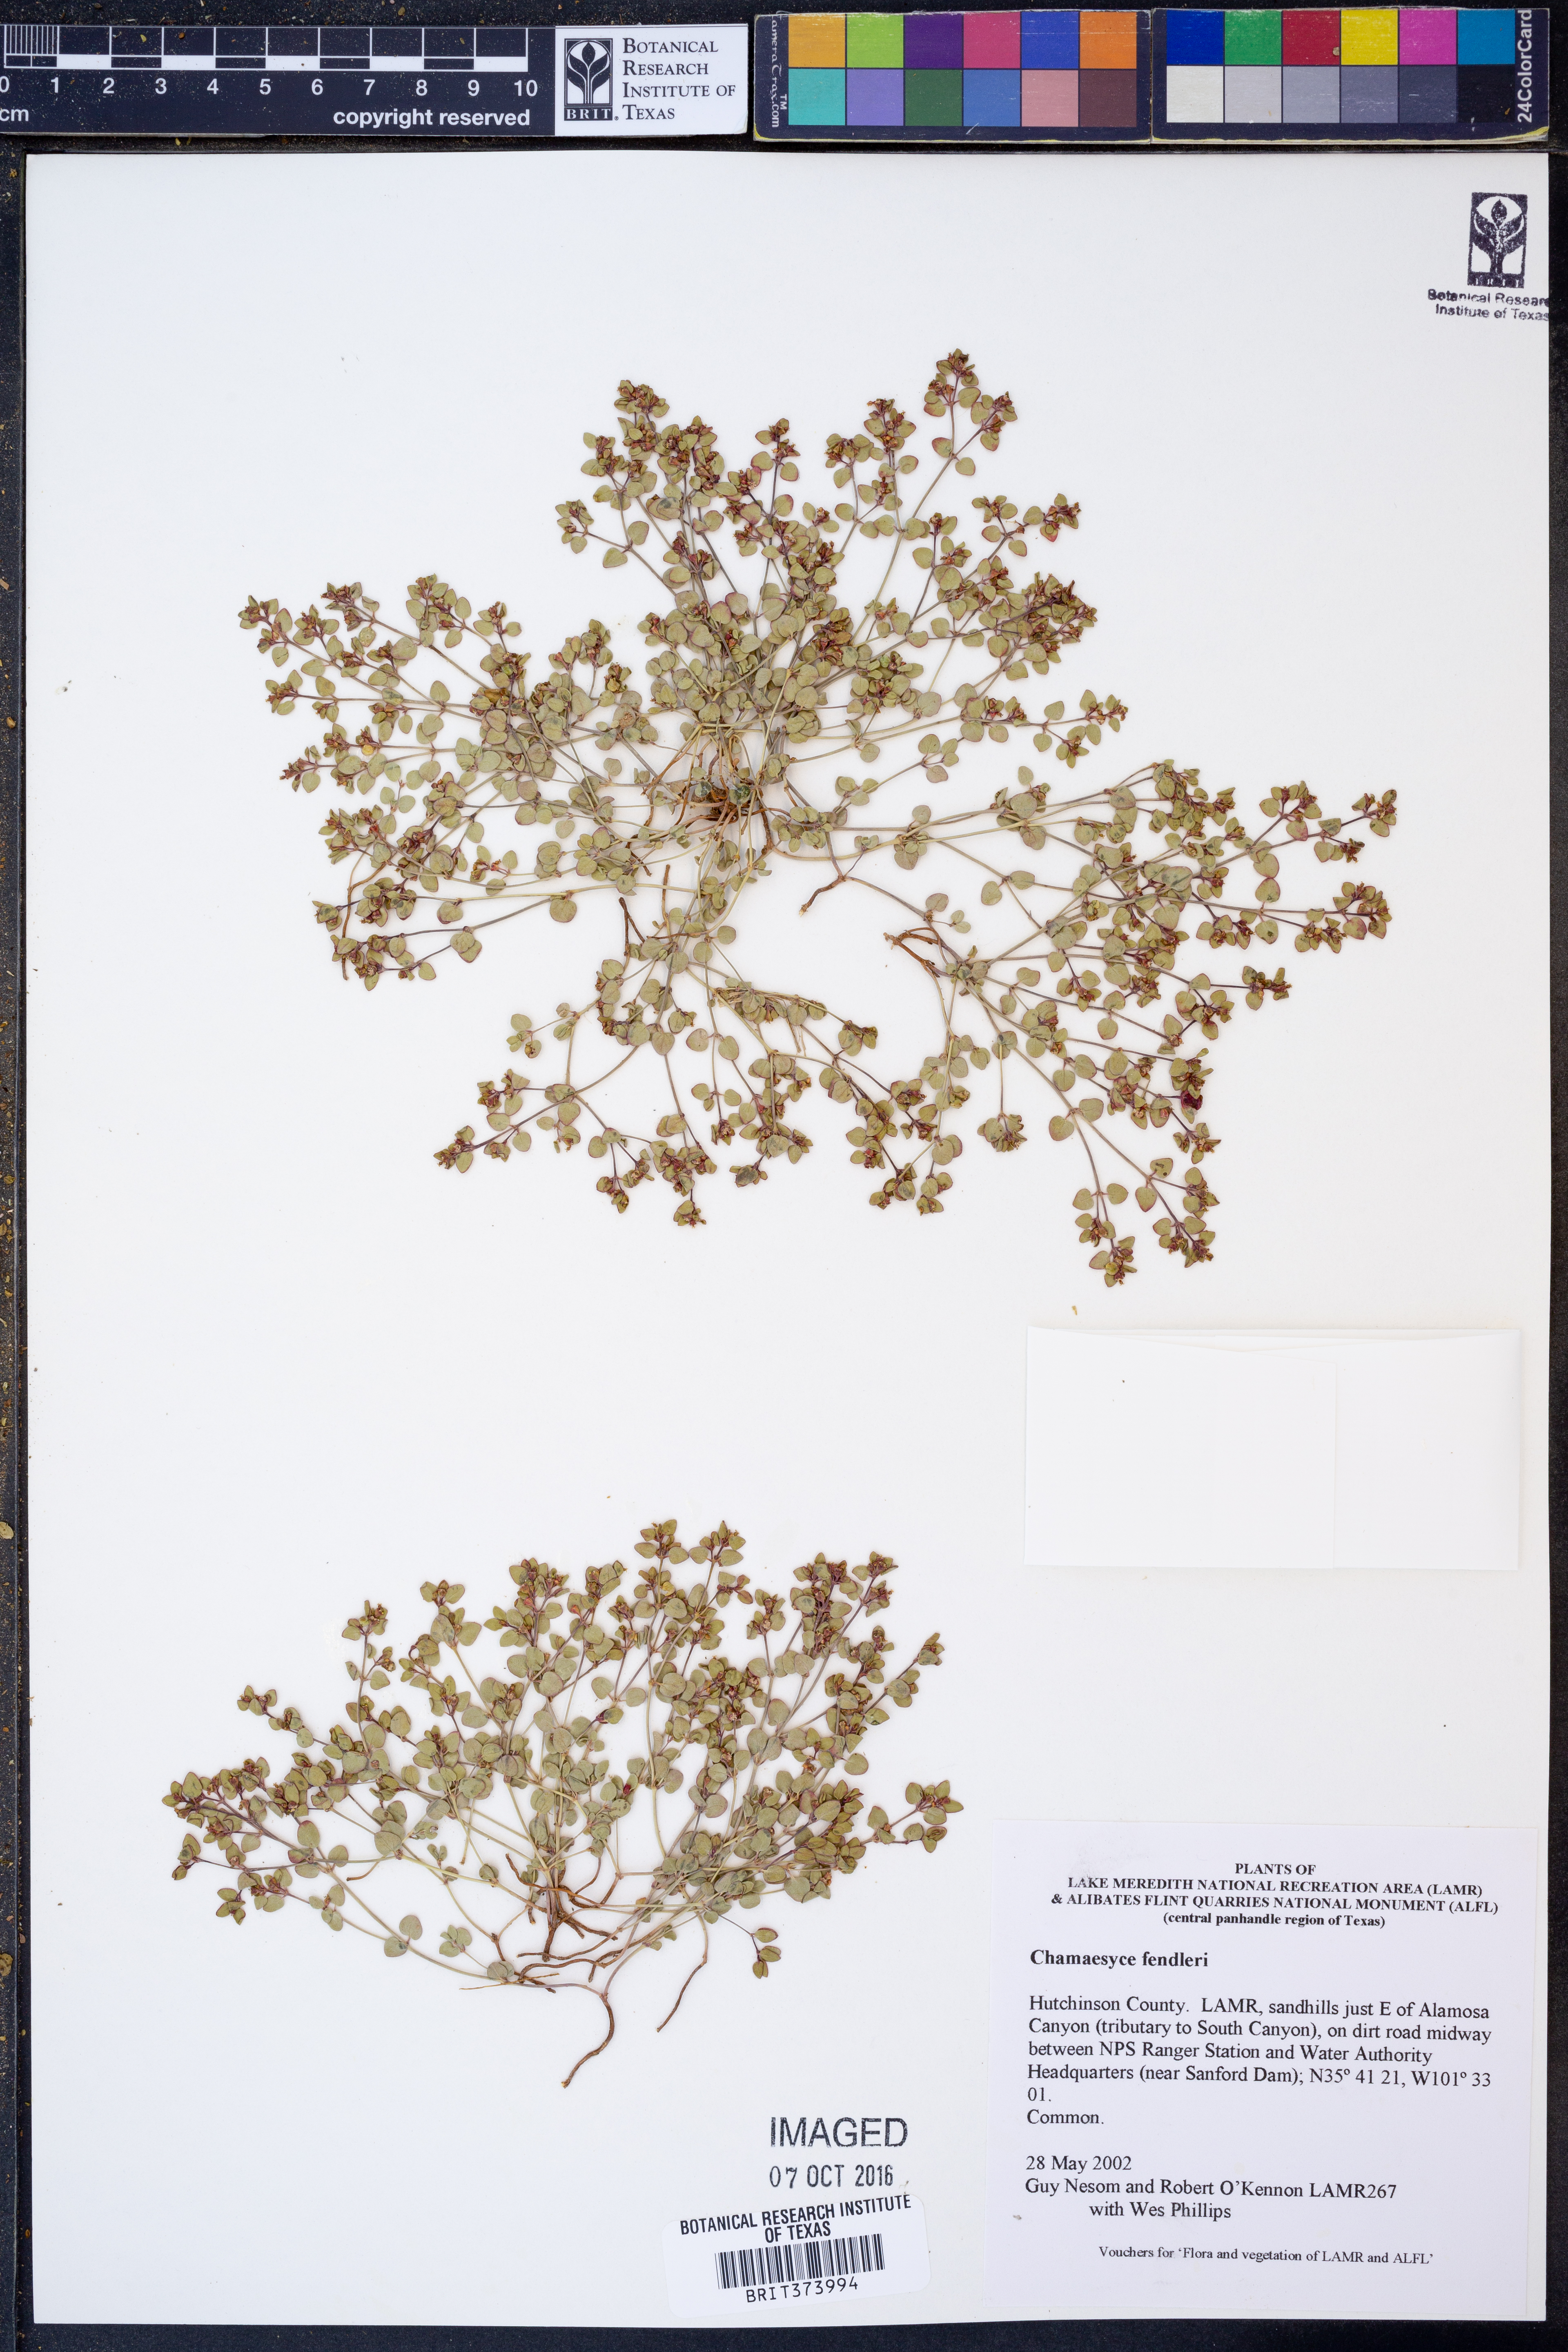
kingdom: Plantae
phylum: Tracheophyta
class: Magnoliopsida
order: Malpighiales
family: Euphorbiaceae
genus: Euphorbia
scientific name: Euphorbia fendleri
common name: Fendler's euphorbia
